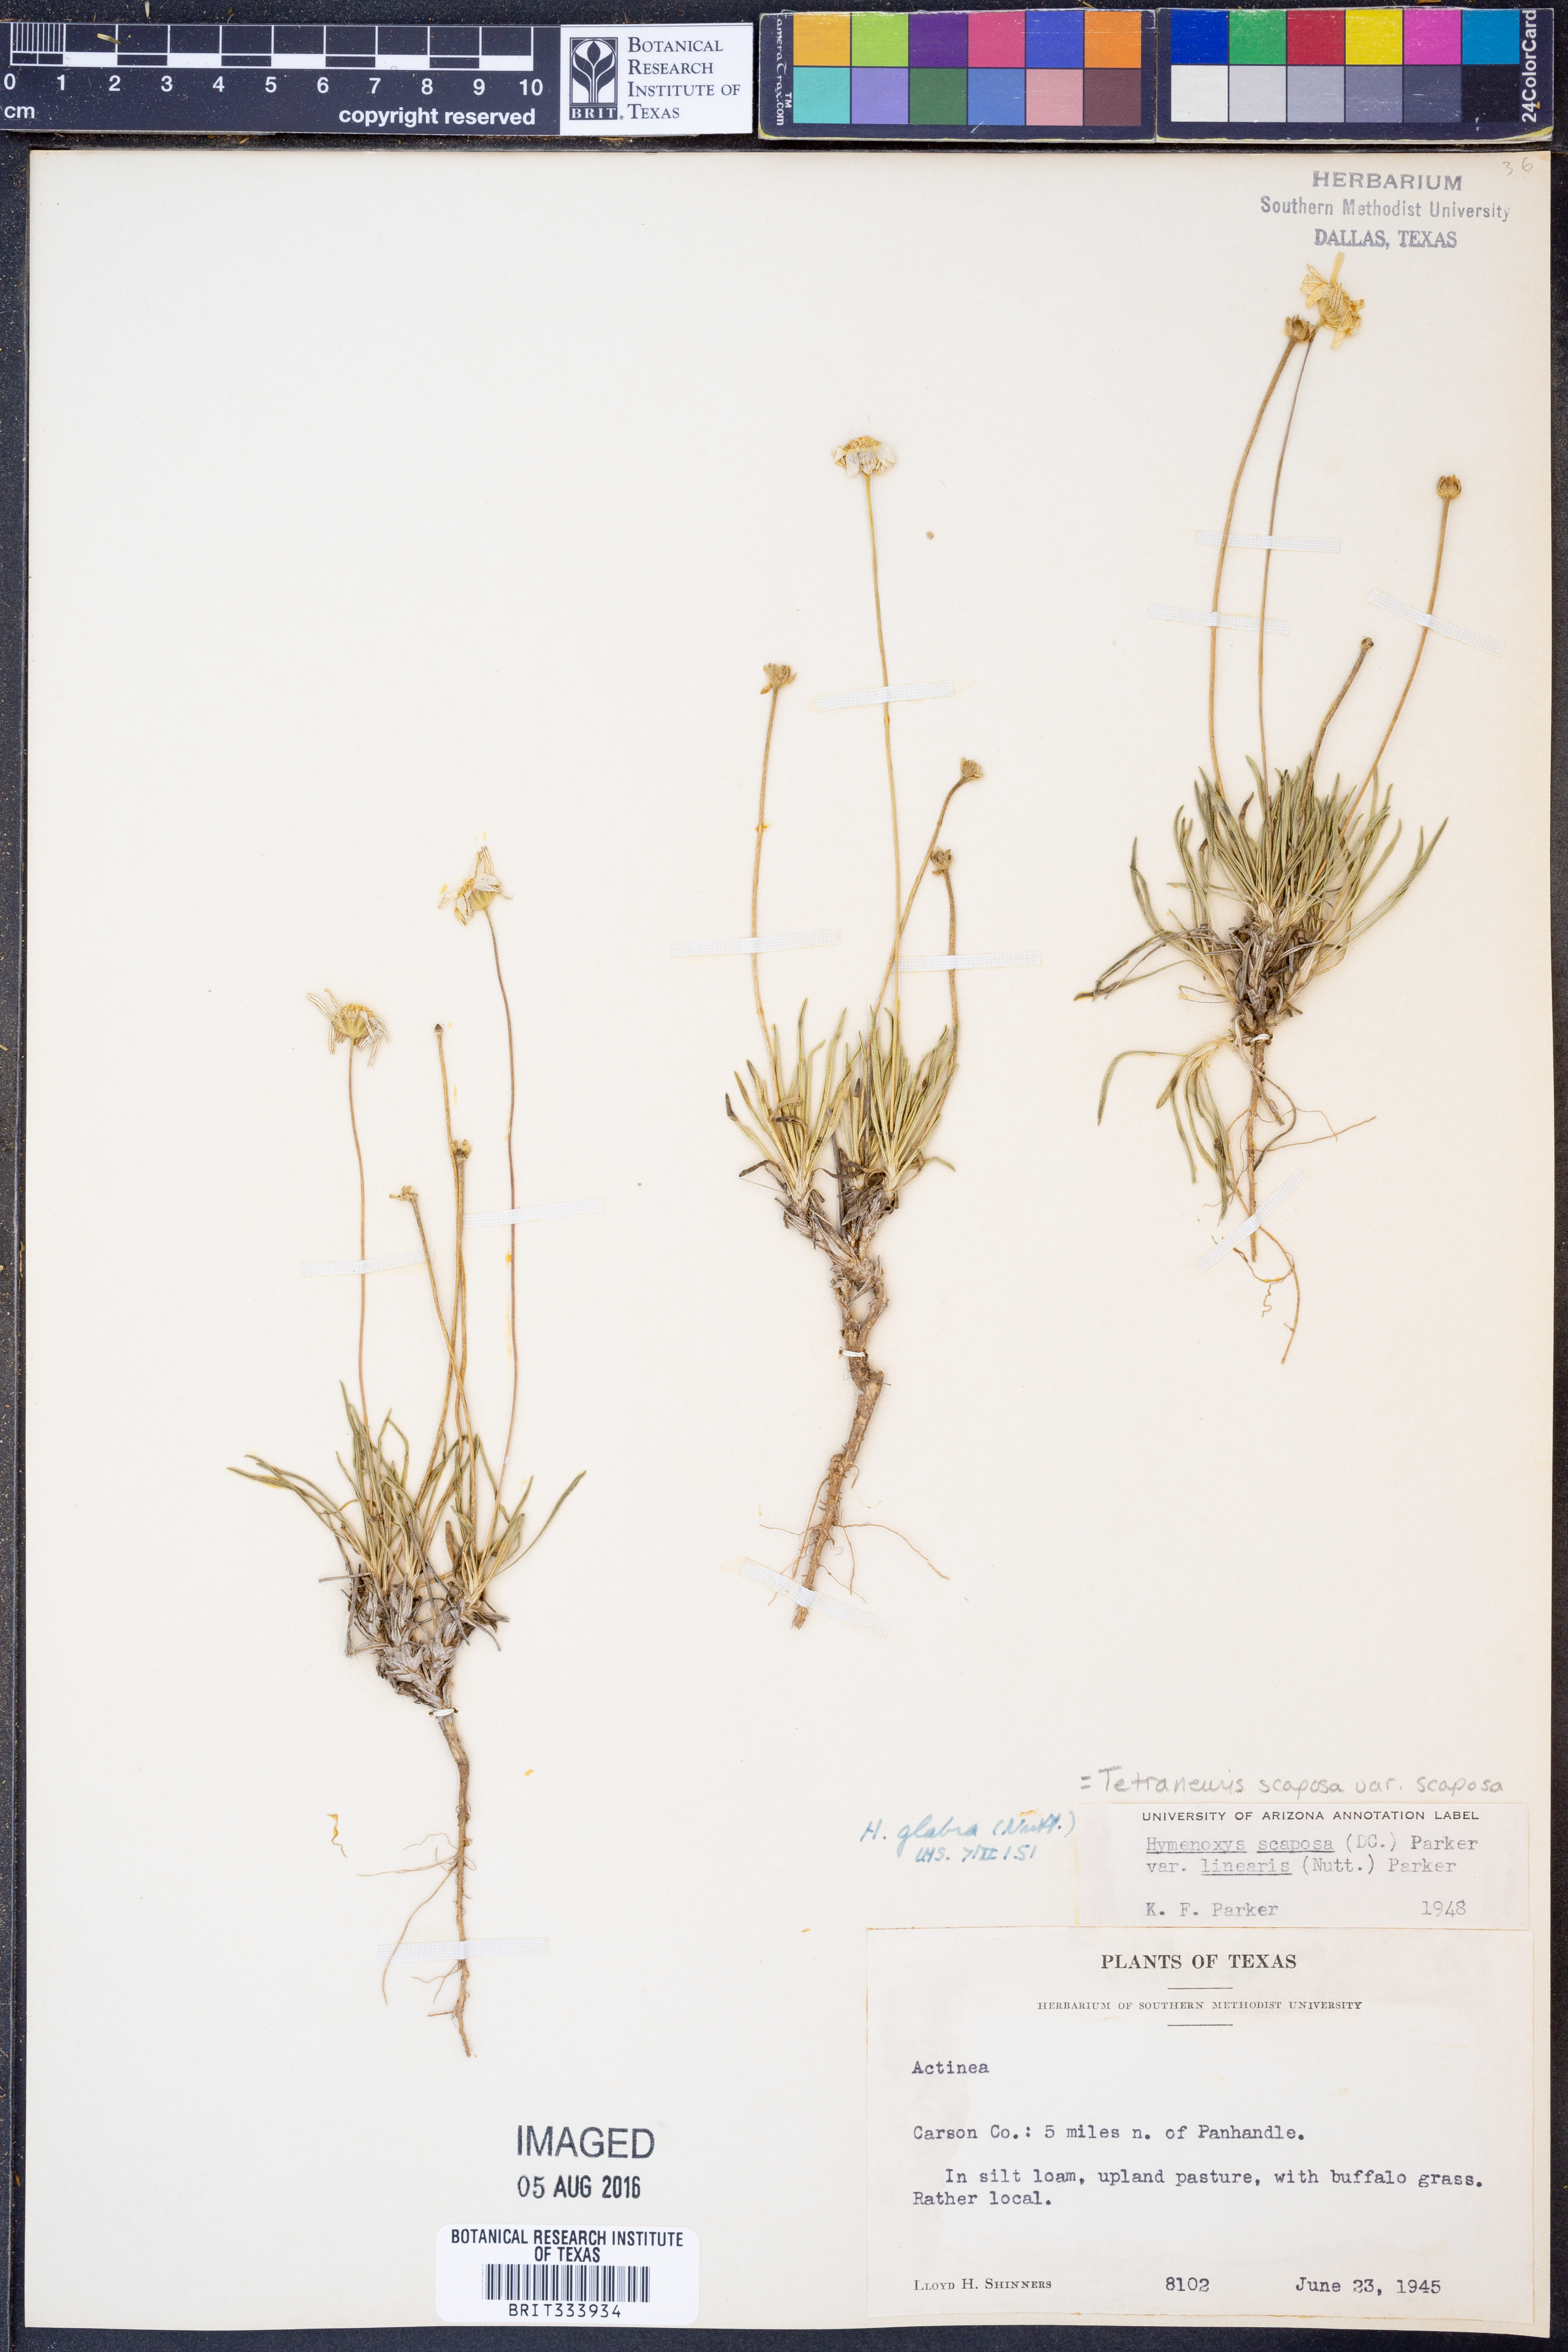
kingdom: Plantae
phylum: Tracheophyta
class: Magnoliopsida
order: Asterales
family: Asteraceae
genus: Tetraneuris
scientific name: Tetraneuris scaposa
